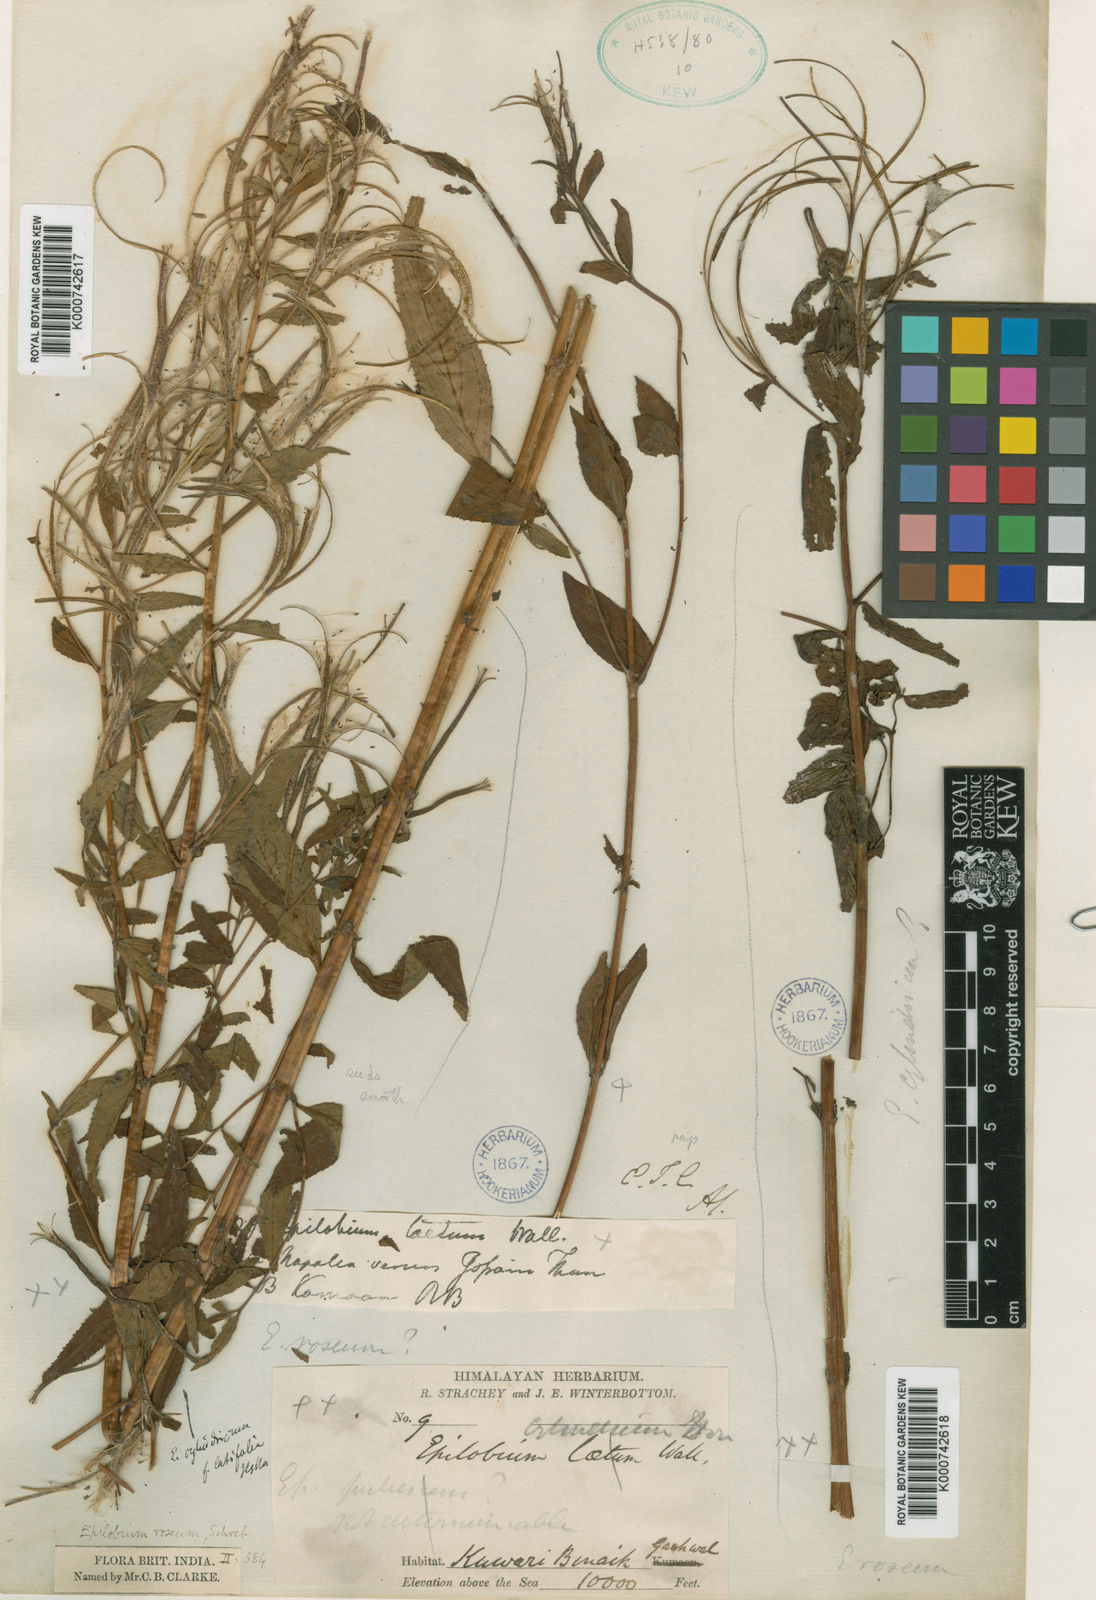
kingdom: Plantae
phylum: Tracheophyta
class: Magnoliopsida
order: Myrtales
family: Onagraceae
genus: Epilobium
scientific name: Epilobium amurense
